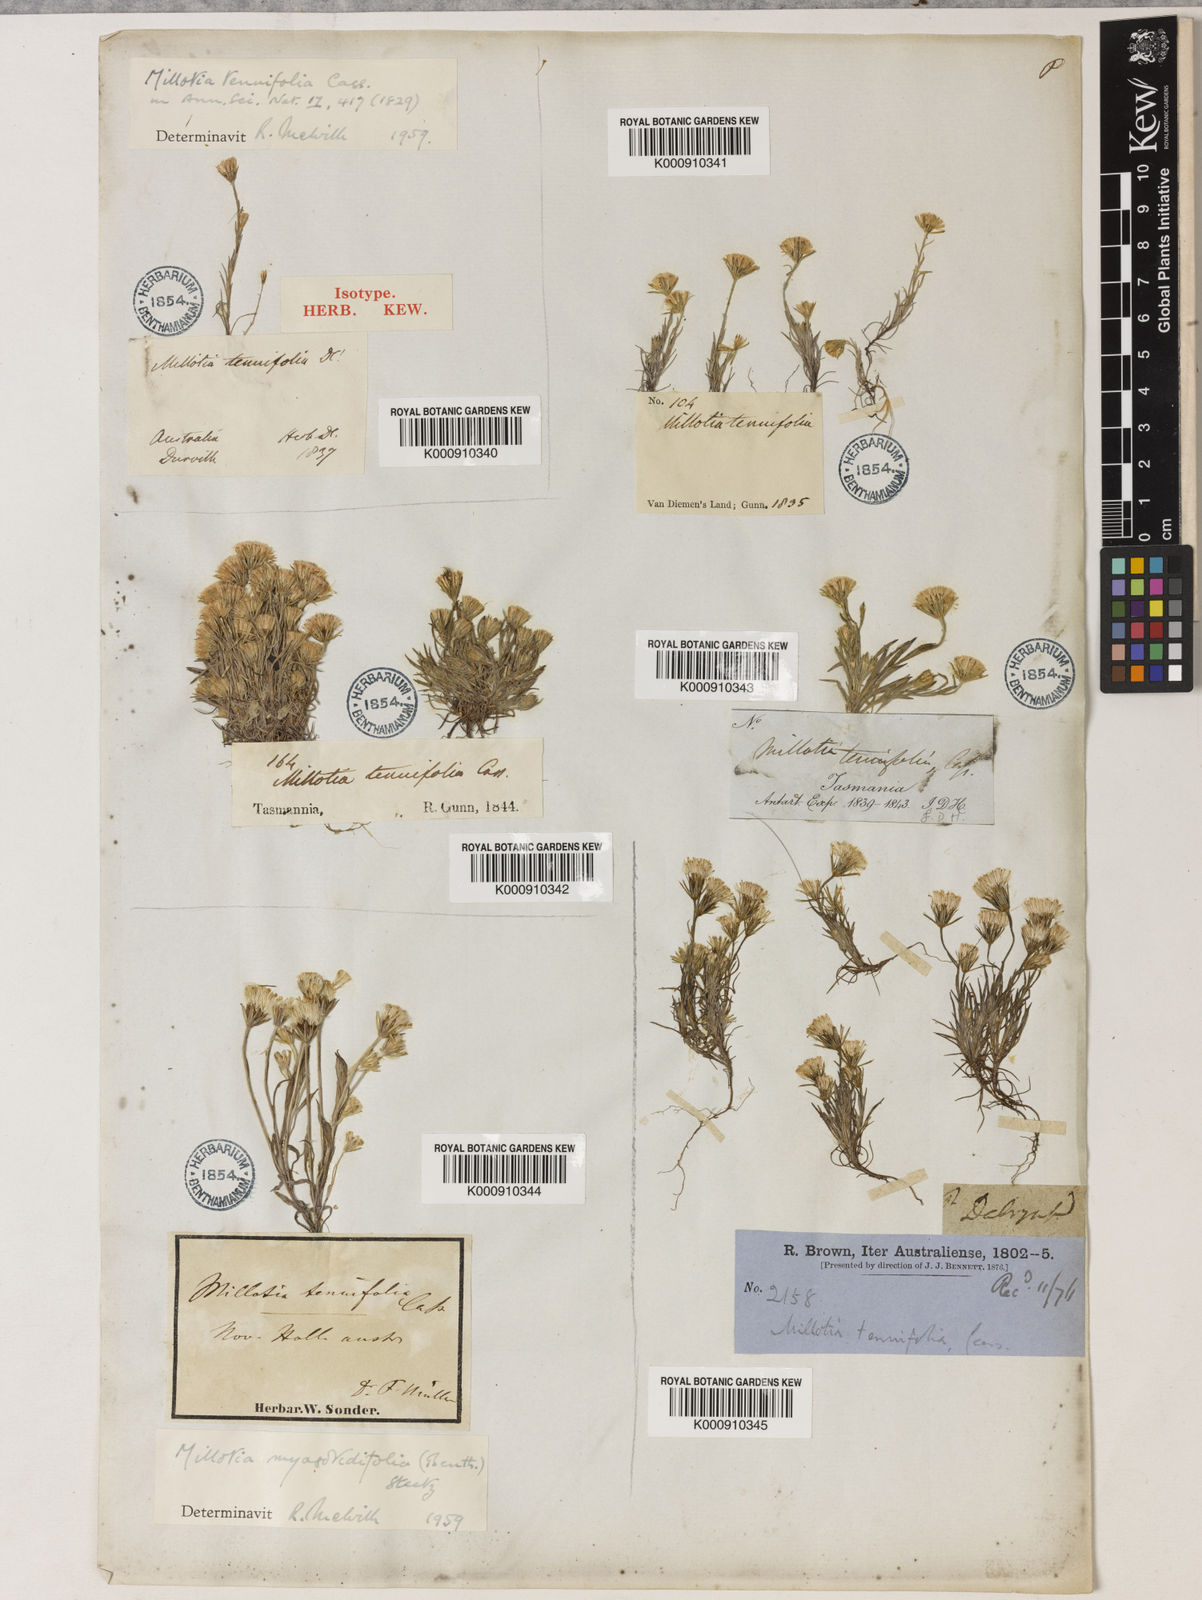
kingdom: Plantae
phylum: Tracheophyta
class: Magnoliopsida
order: Asterales
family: Asteraceae
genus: Millotia
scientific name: Millotia tenuifolia
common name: Soft millotia
